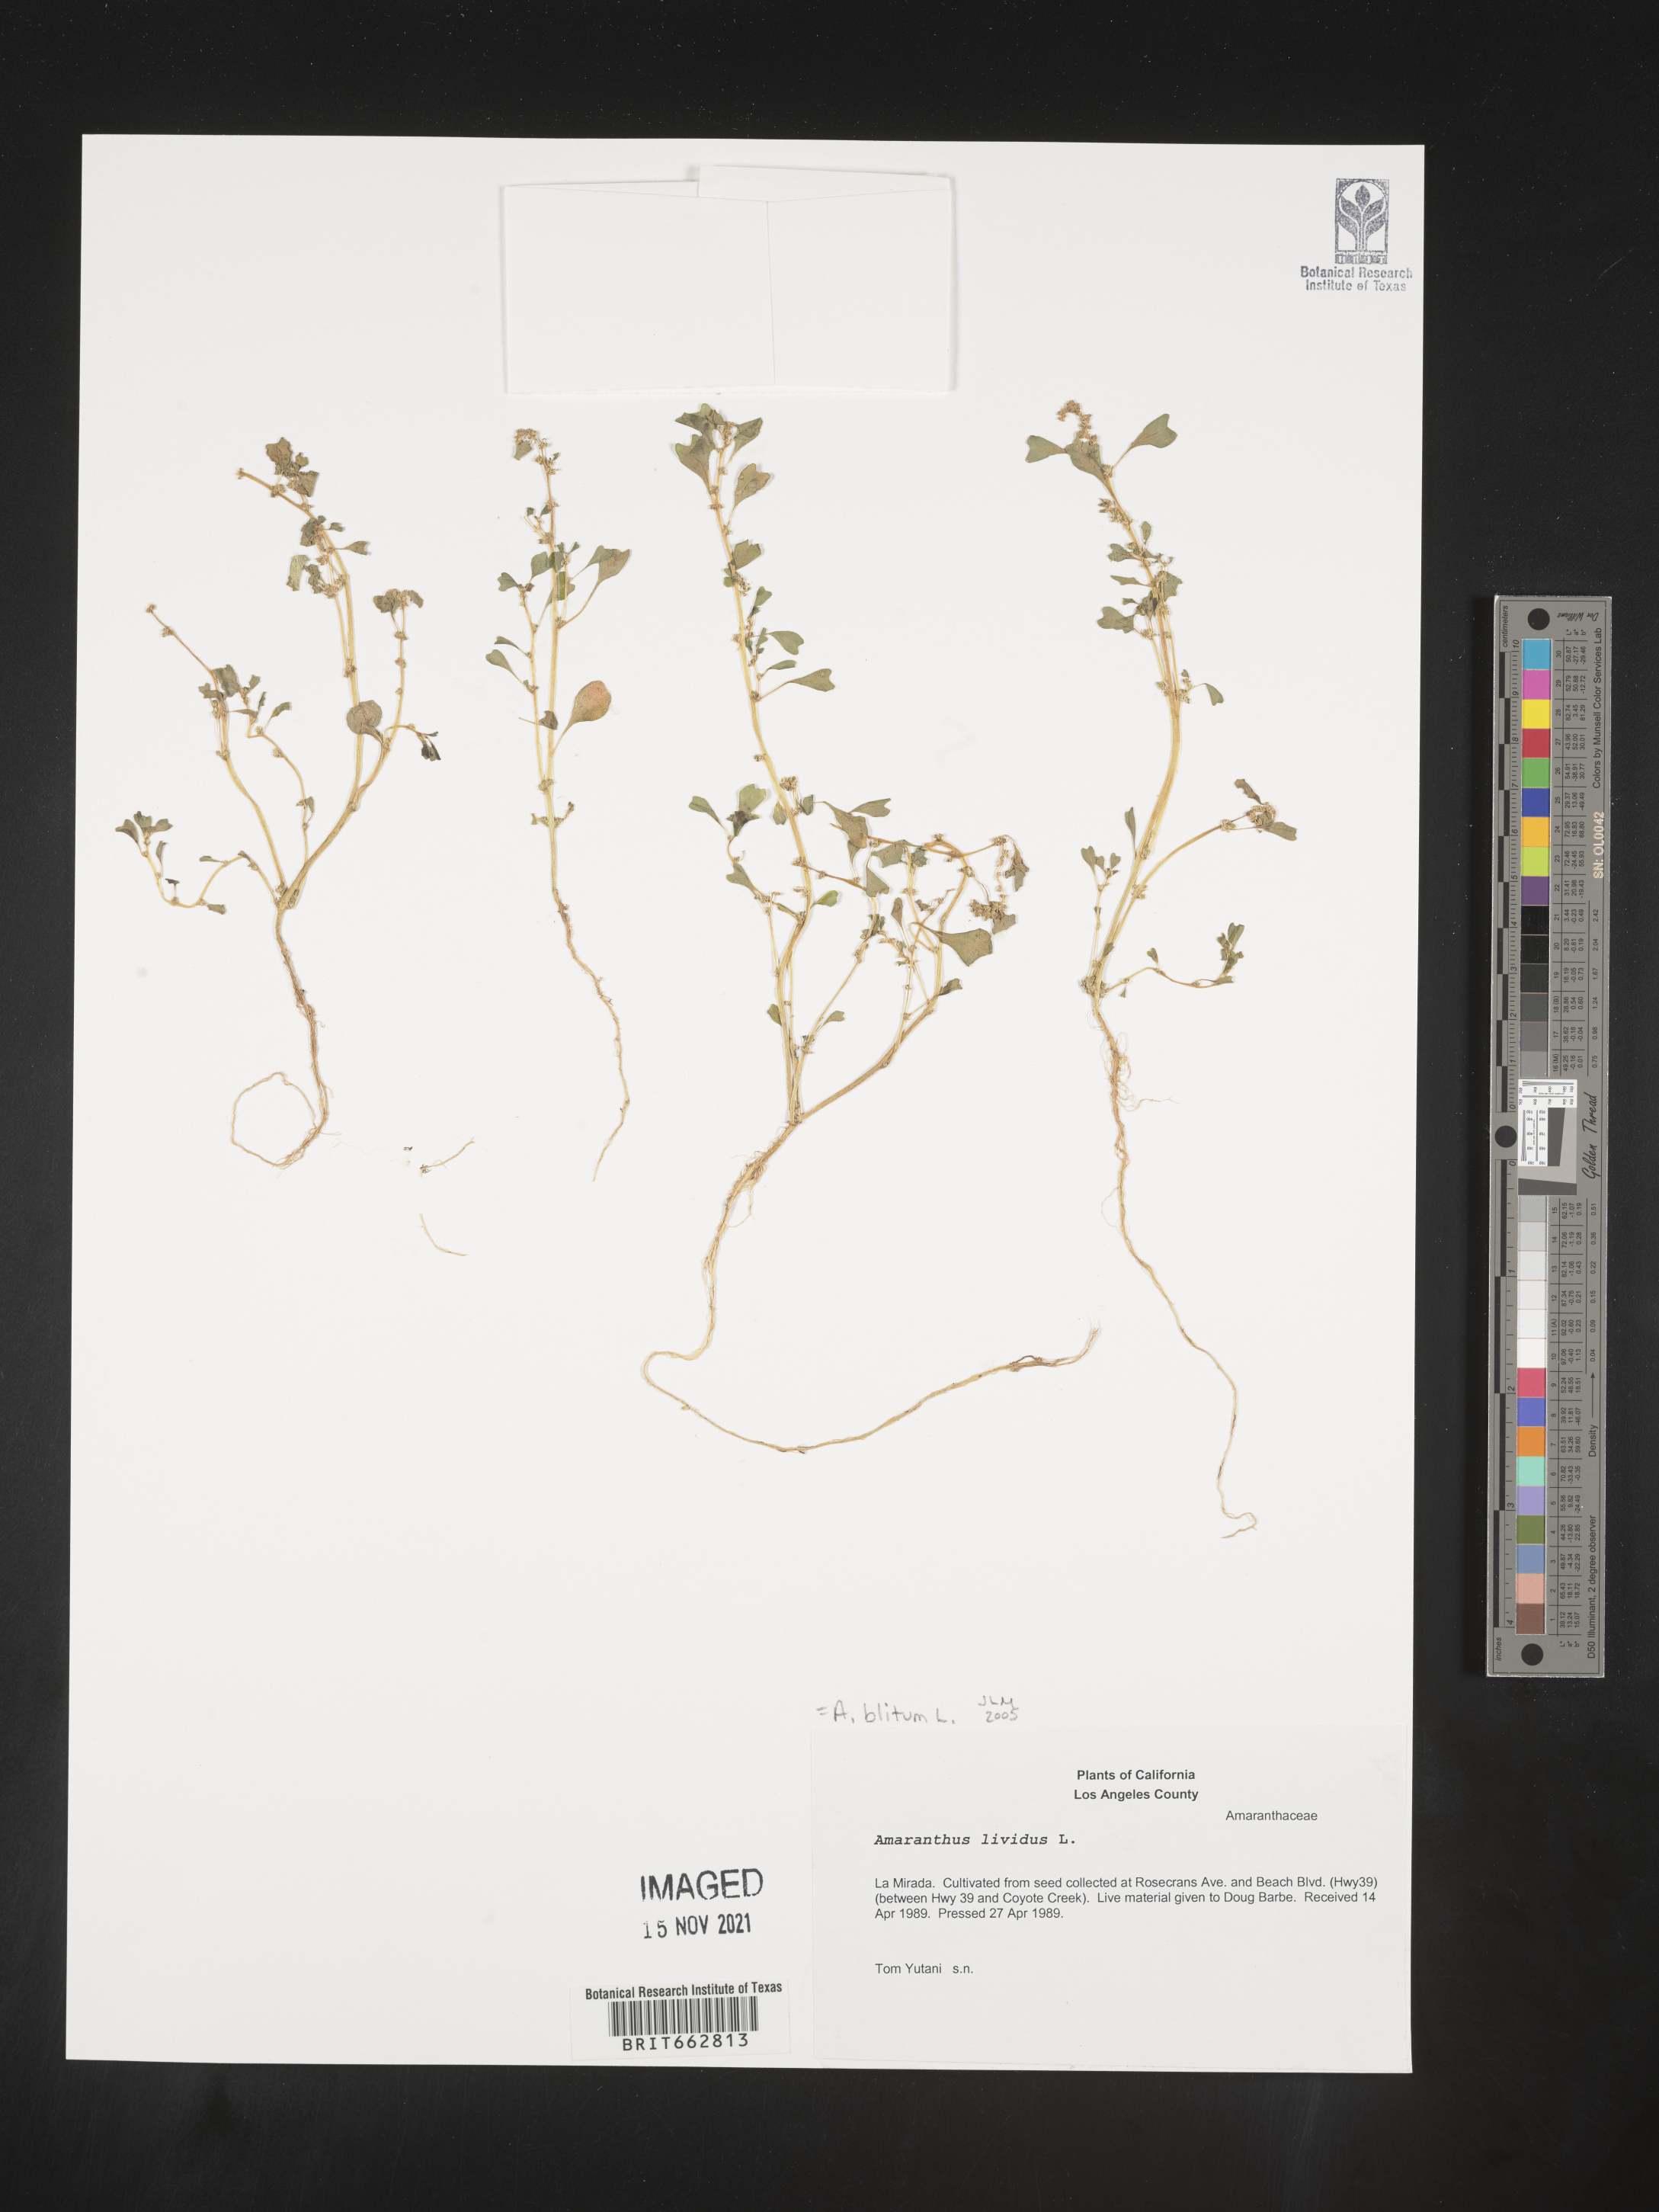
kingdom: Plantae
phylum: Tracheophyta
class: Magnoliopsida
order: Caryophyllales
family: Amaranthaceae
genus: Amaranthus
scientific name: Amaranthus blitum
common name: Purple amaranth
